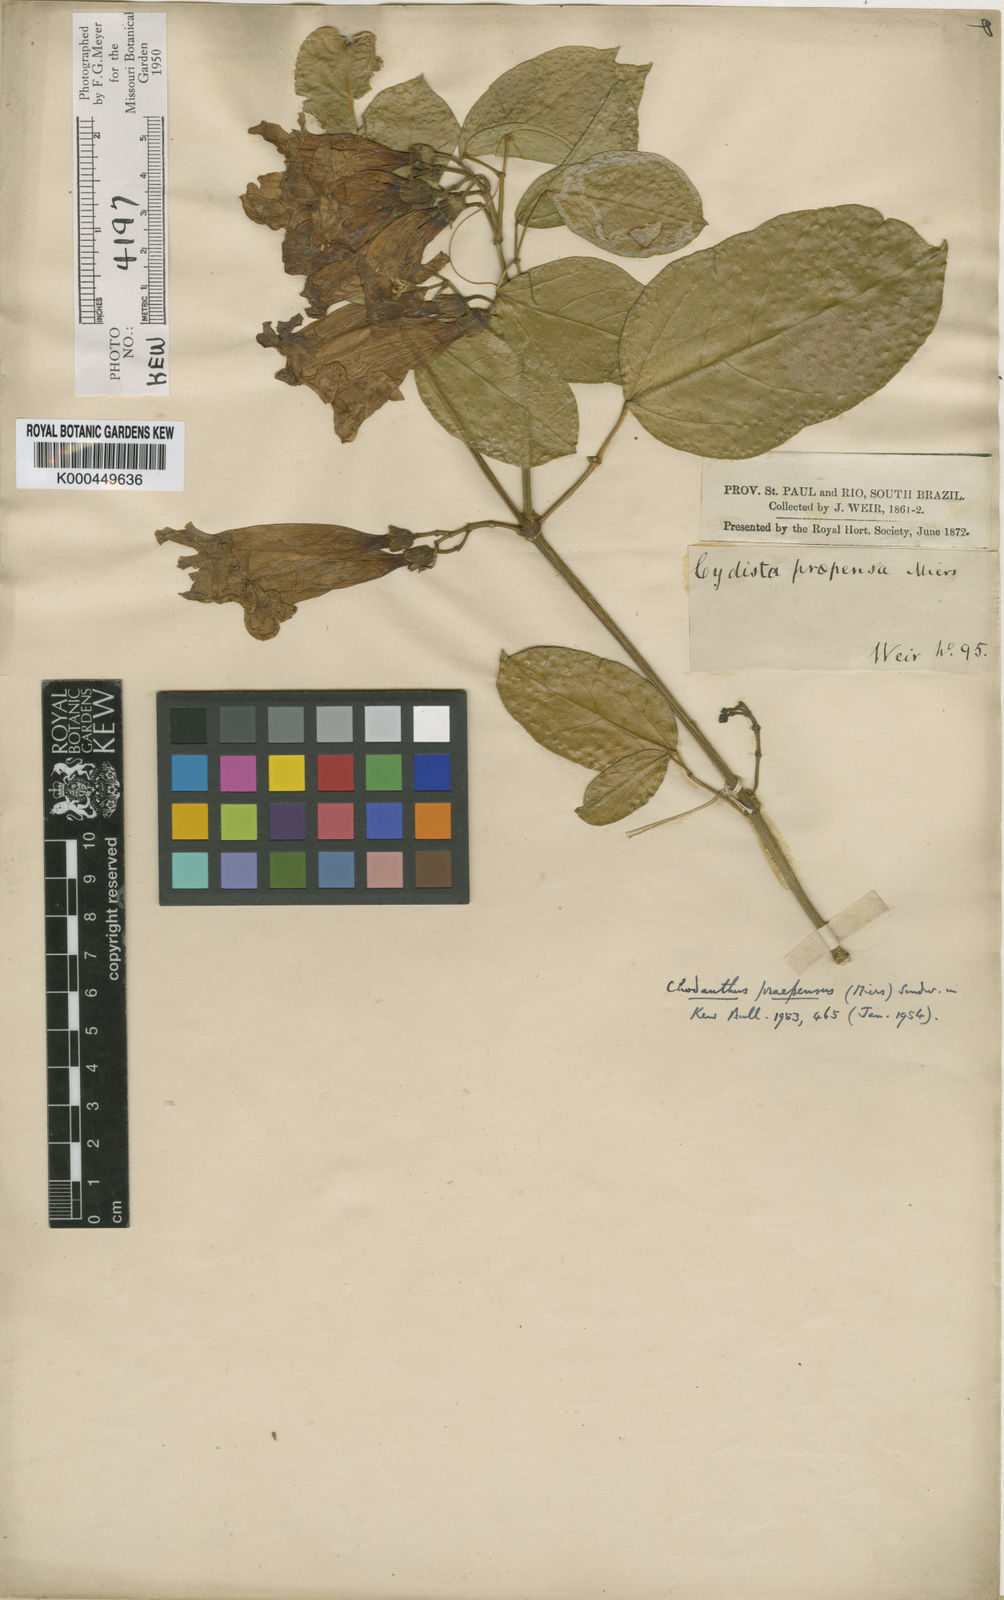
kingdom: Plantae
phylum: Tracheophyta
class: Magnoliopsida
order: Lamiales
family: Bignoniaceae
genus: Mansoa
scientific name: Mansoa difficilis
